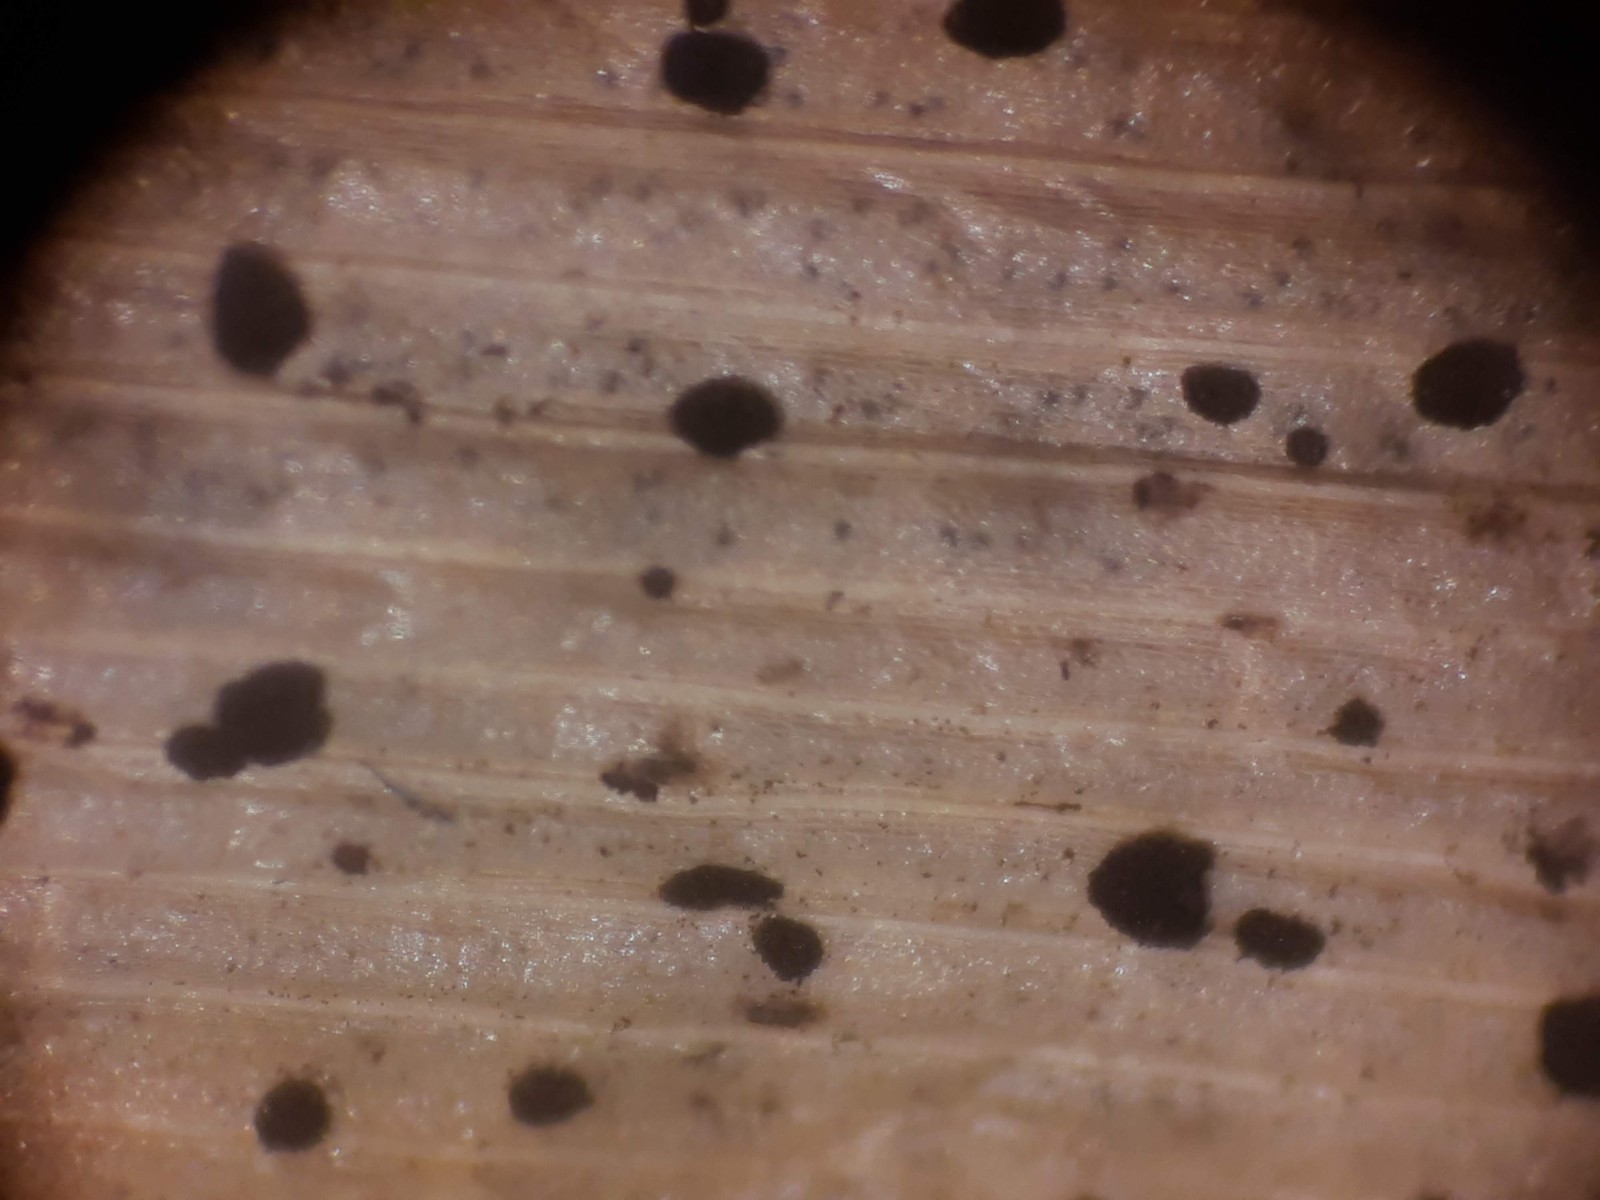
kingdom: Fungi
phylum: Ascomycota
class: Sordariomycetes
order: Xylariales
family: Hyponectriaceae
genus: Physalospora
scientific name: Physalospora scirpi
